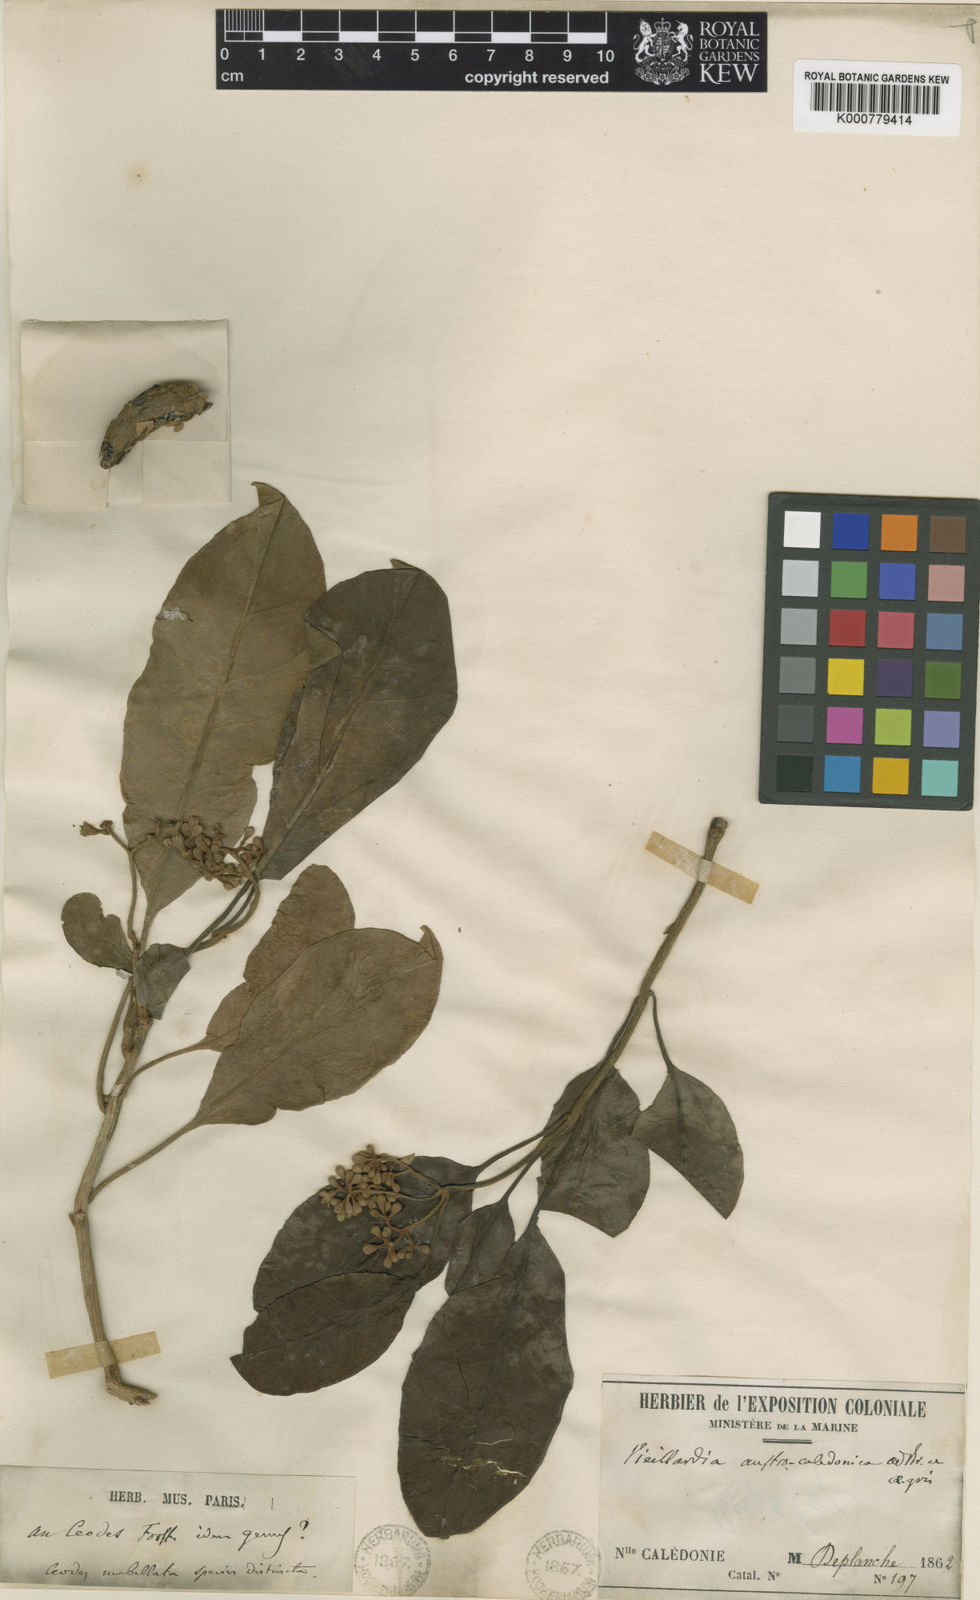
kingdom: Plantae
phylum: Tracheophyta
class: Magnoliopsida
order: Caryophyllales
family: Nyctaginaceae
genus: Ceodes
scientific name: Ceodes artensis
